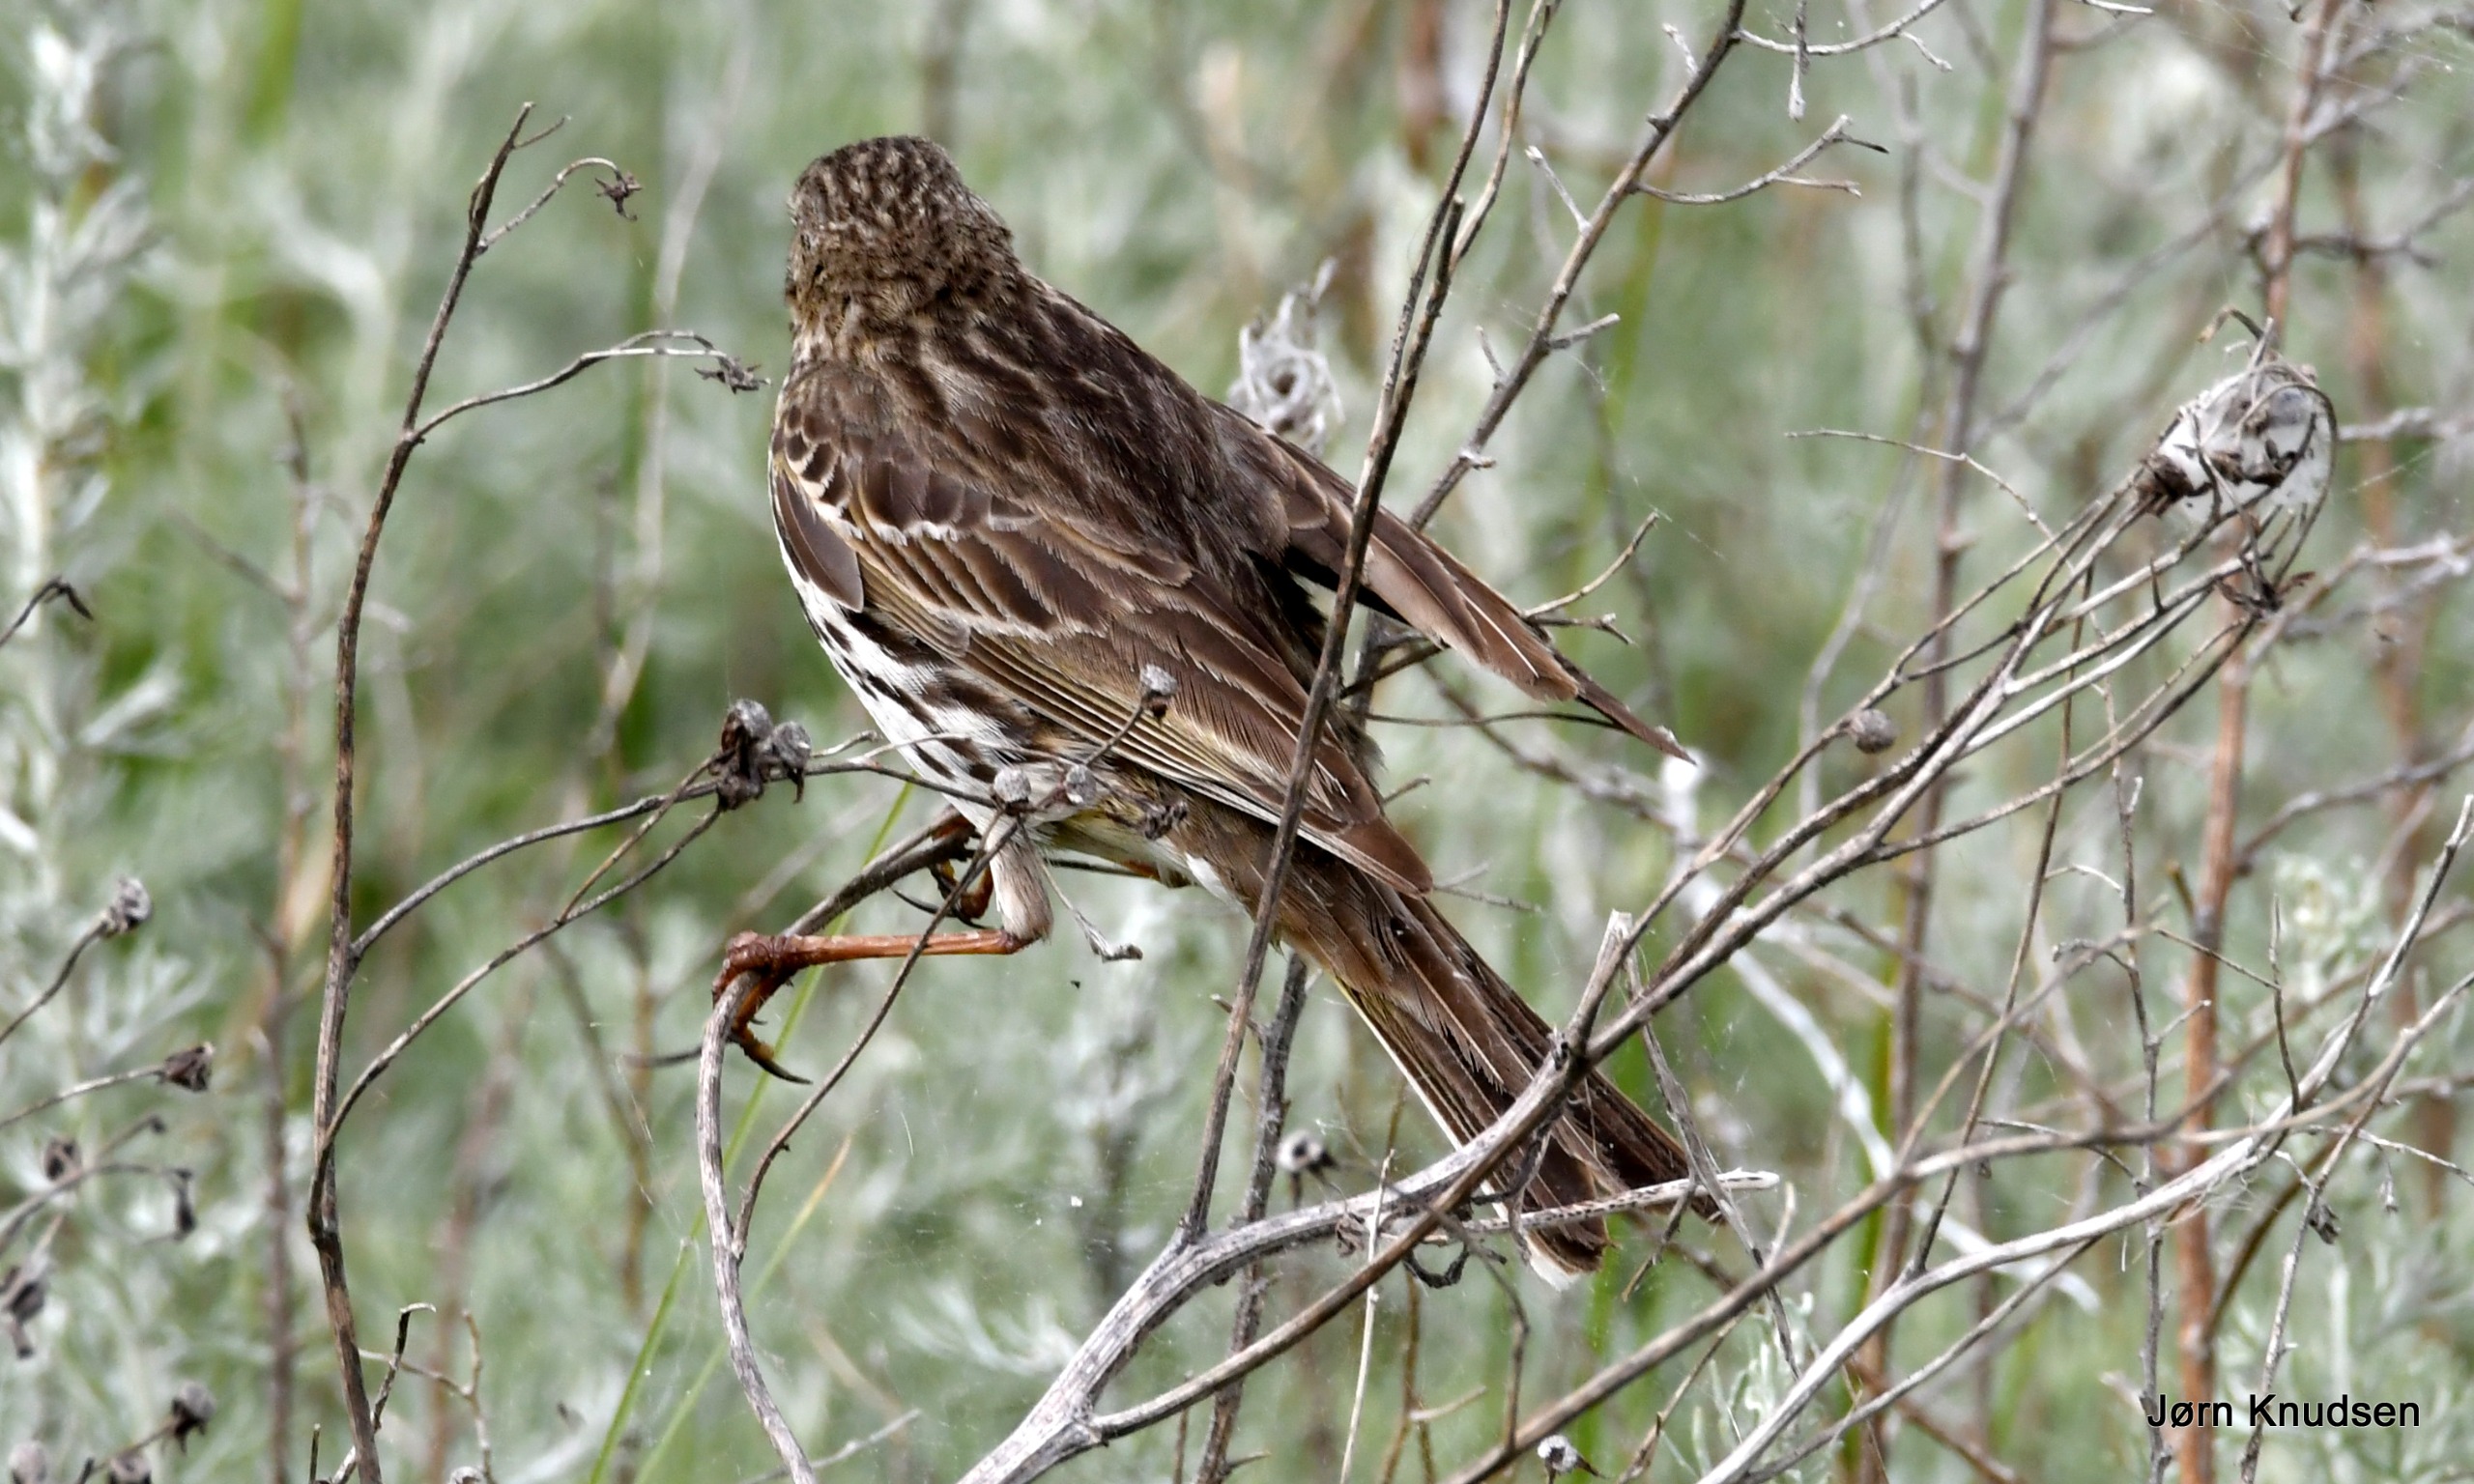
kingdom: Animalia
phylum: Chordata
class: Aves
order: Passeriformes
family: Motacillidae
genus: Anthus
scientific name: Anthus pratensis
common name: Engpiber
